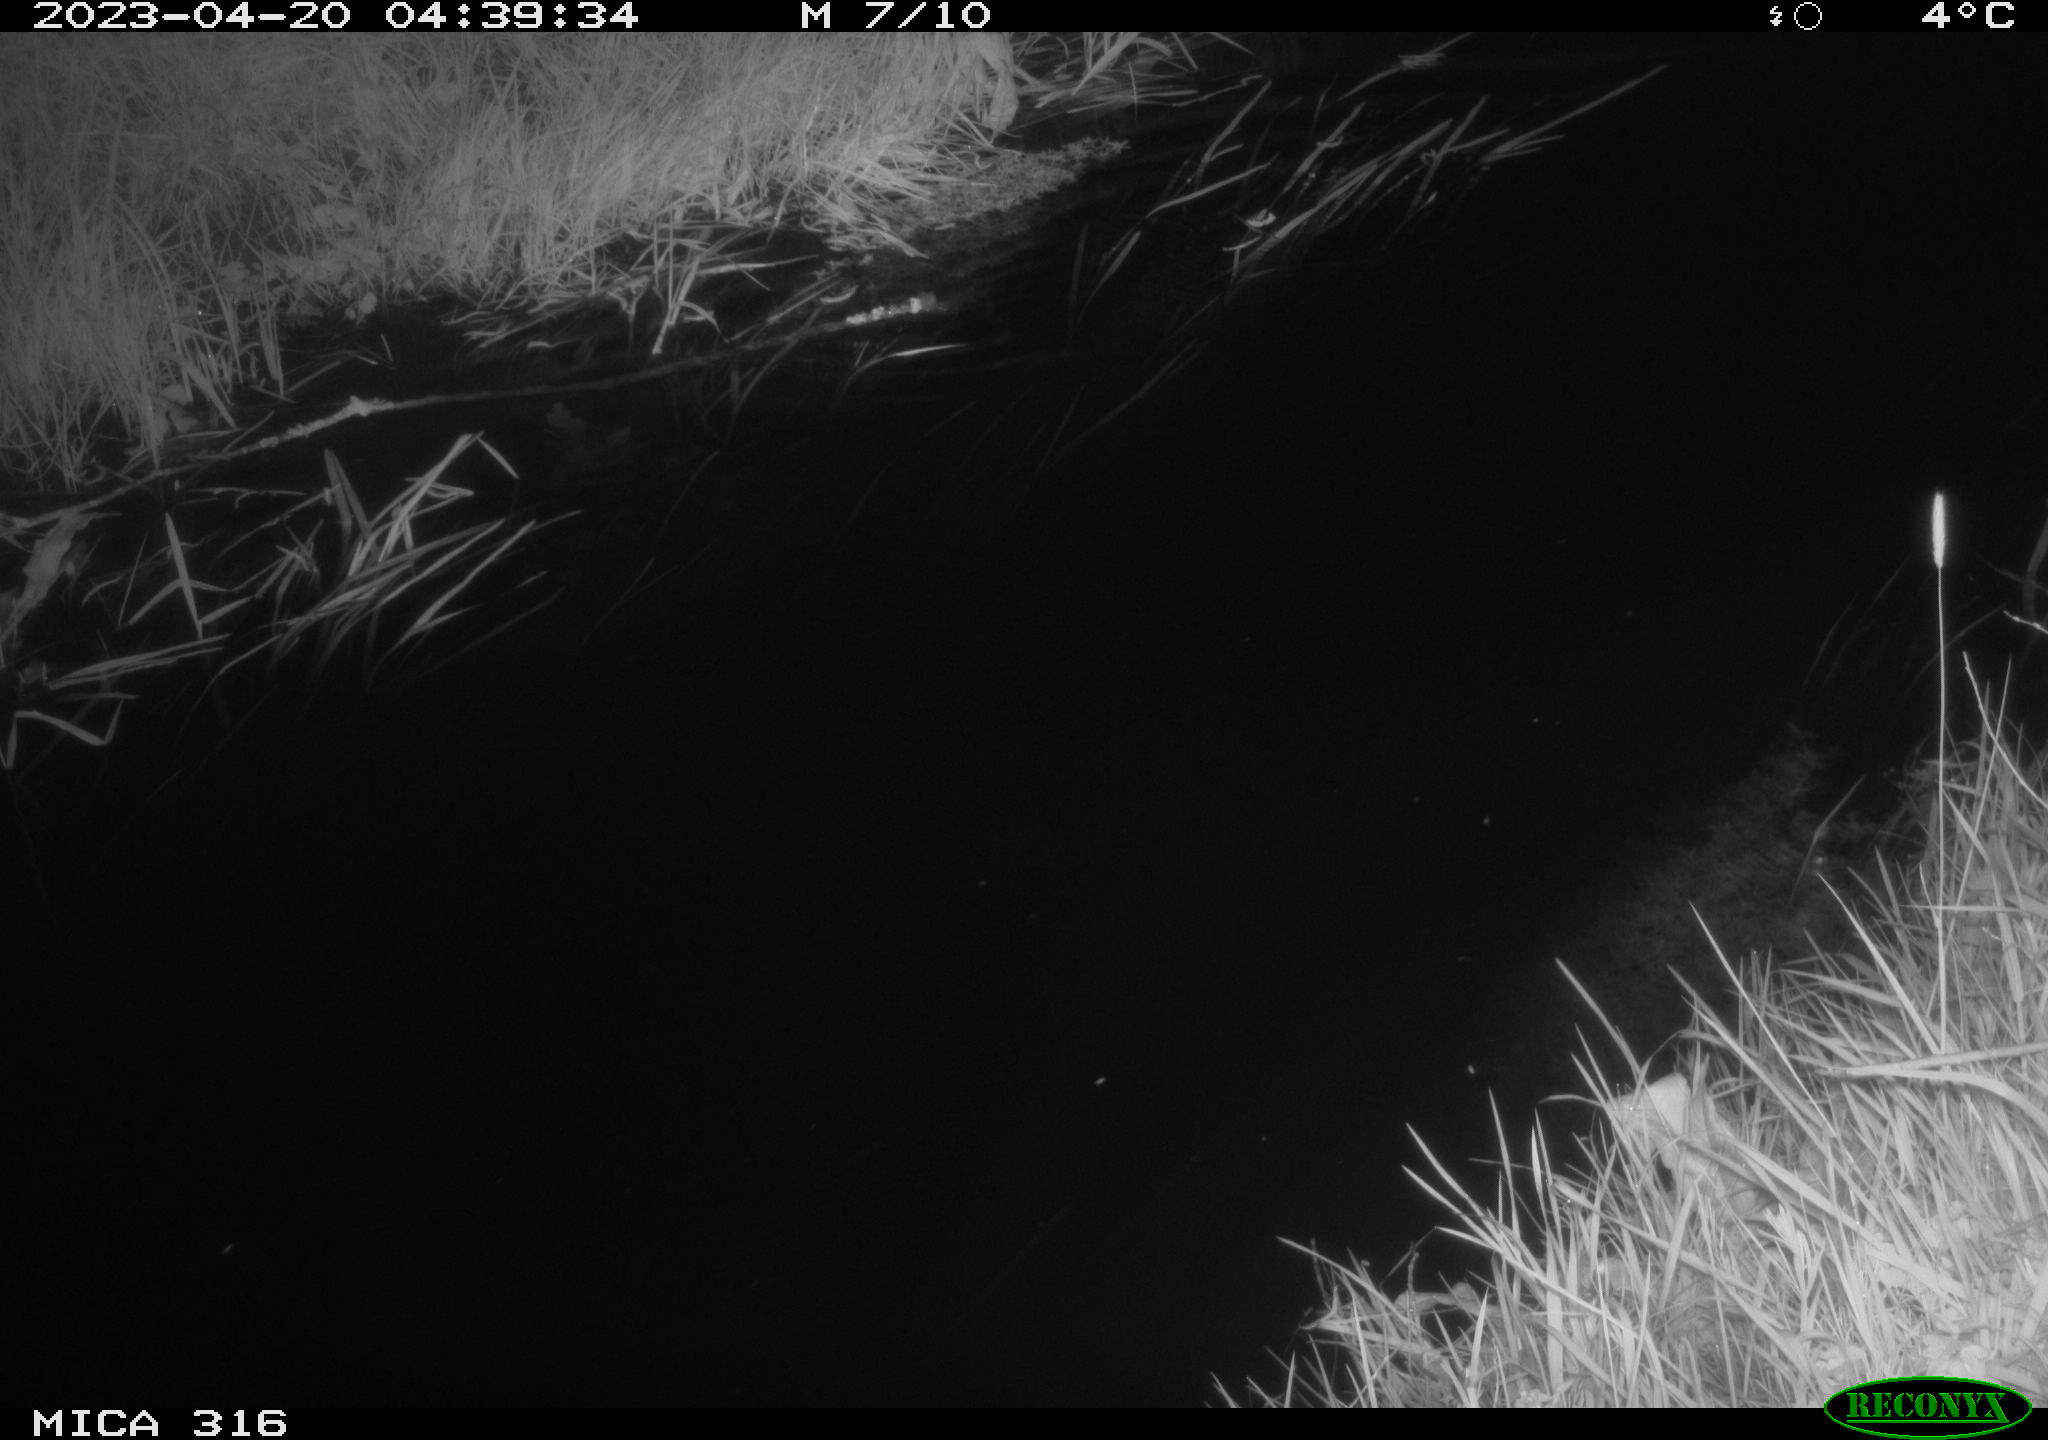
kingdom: Animalia
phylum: Chordata
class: Aves
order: Anseriformes
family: Anatidae
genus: Anas
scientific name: Anas
